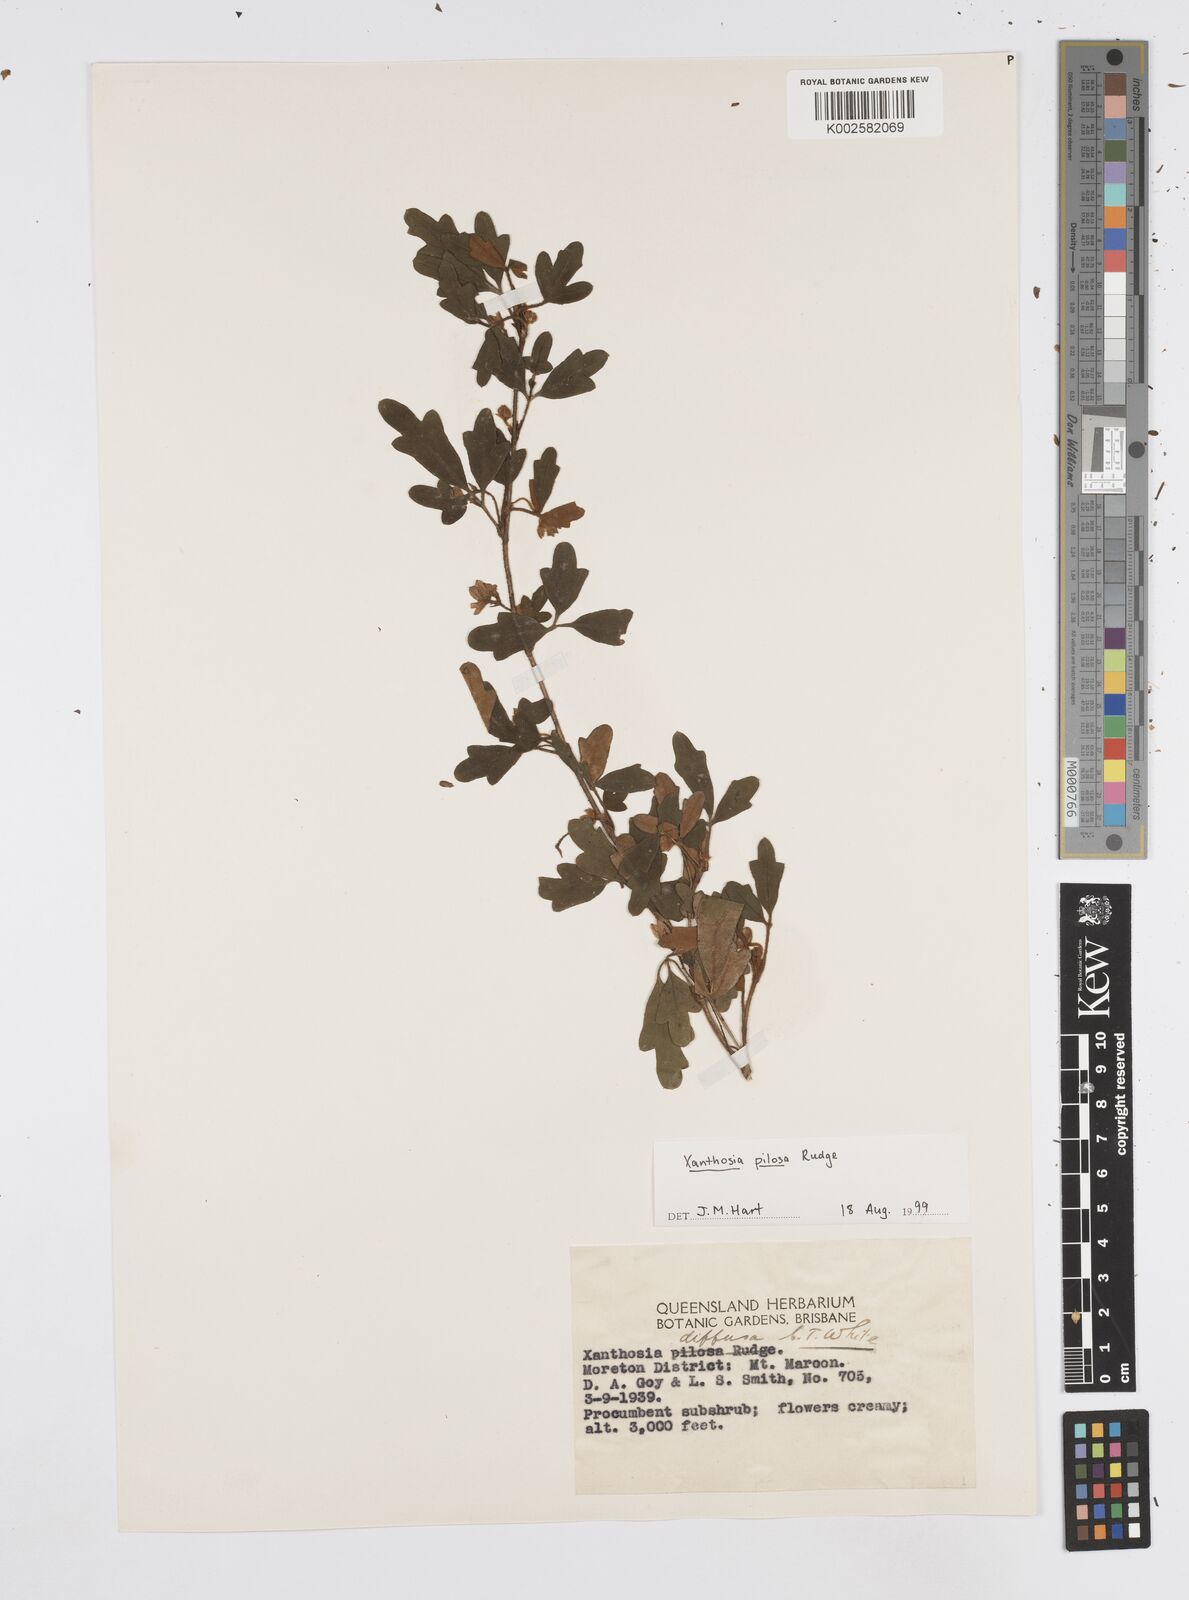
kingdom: Plantae
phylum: Tracheophyta
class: Magnoliopsida
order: Apiales
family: Apiaceae
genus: Xanthosia
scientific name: Xanthosia pilosa
